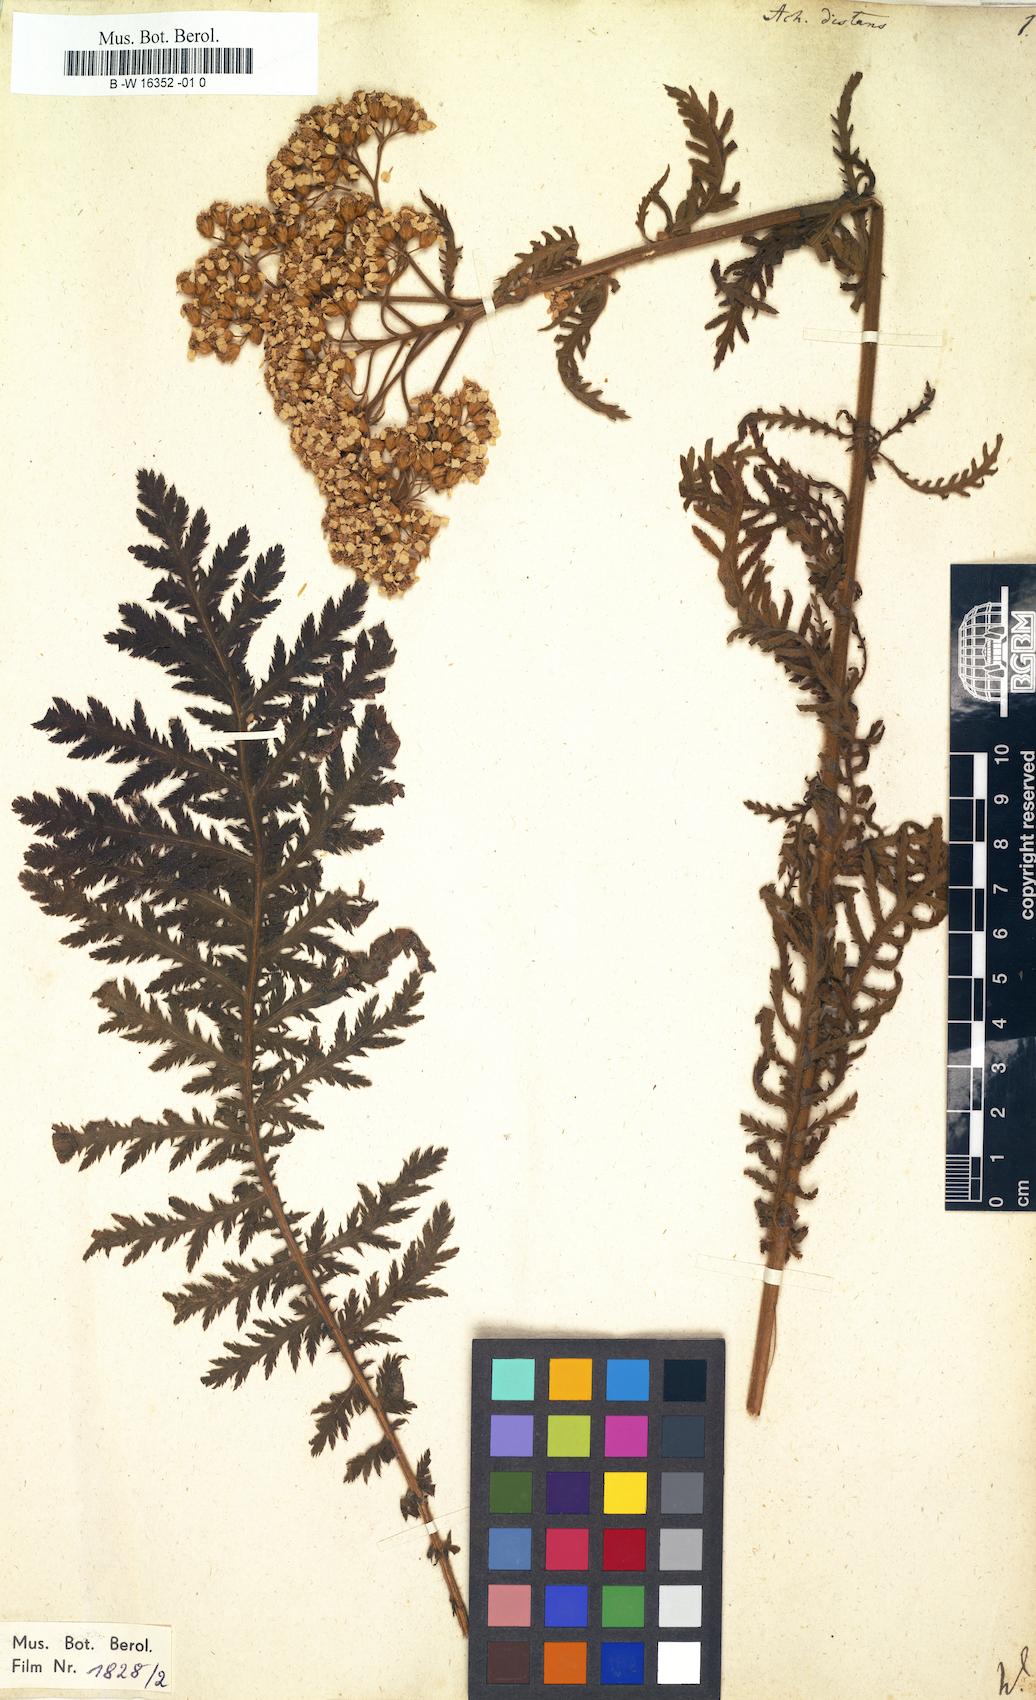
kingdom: Plantae
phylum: Tracheophyta
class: Magnoliopsida
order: Asterales
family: Asteraceae
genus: Achillea
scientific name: Achillea distans
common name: Tall yarrow
